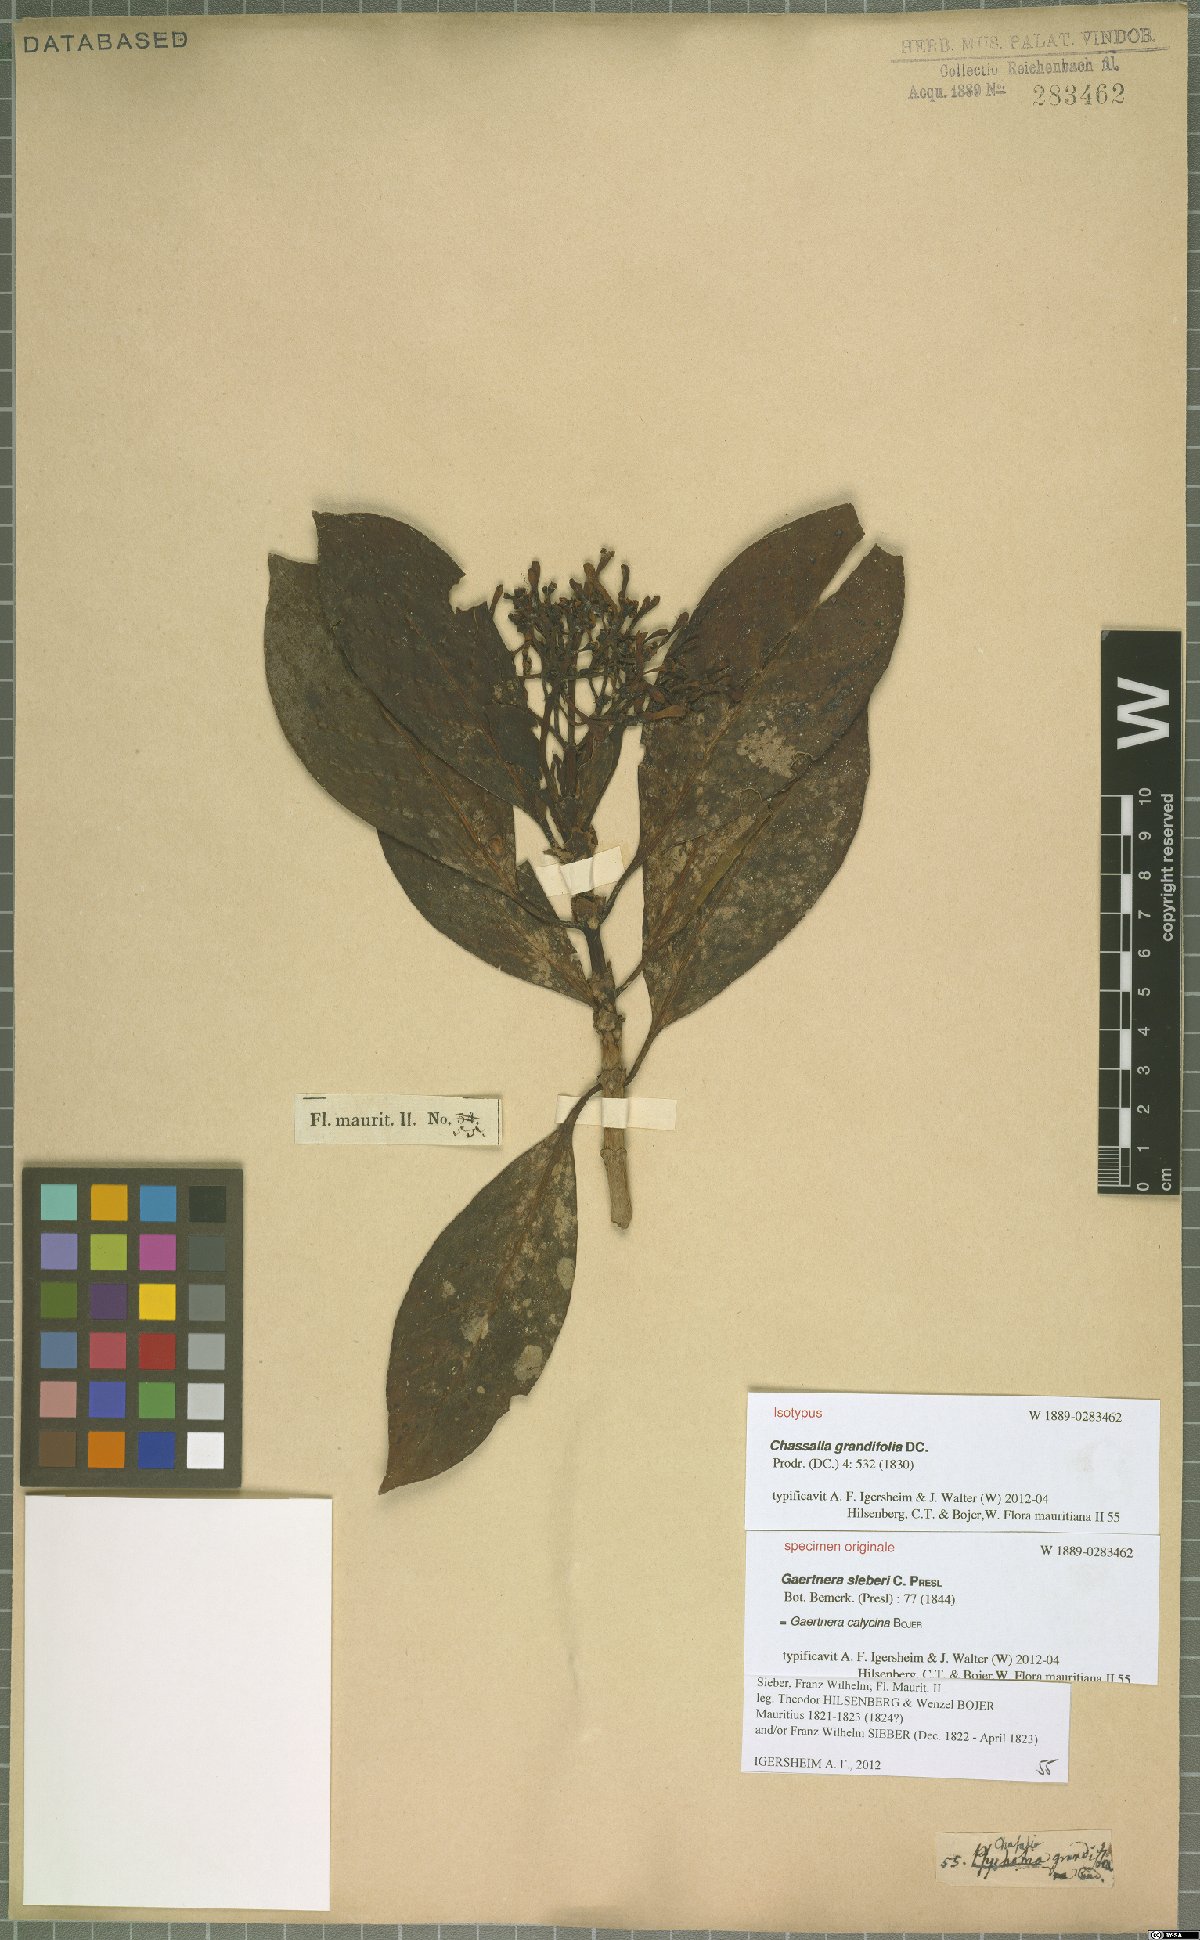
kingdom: Plantae
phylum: Tracheophyta
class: Magnoliopsida
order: Gentianales
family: Rubiaceae
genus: Chassalia
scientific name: Chassalia grandifolia
